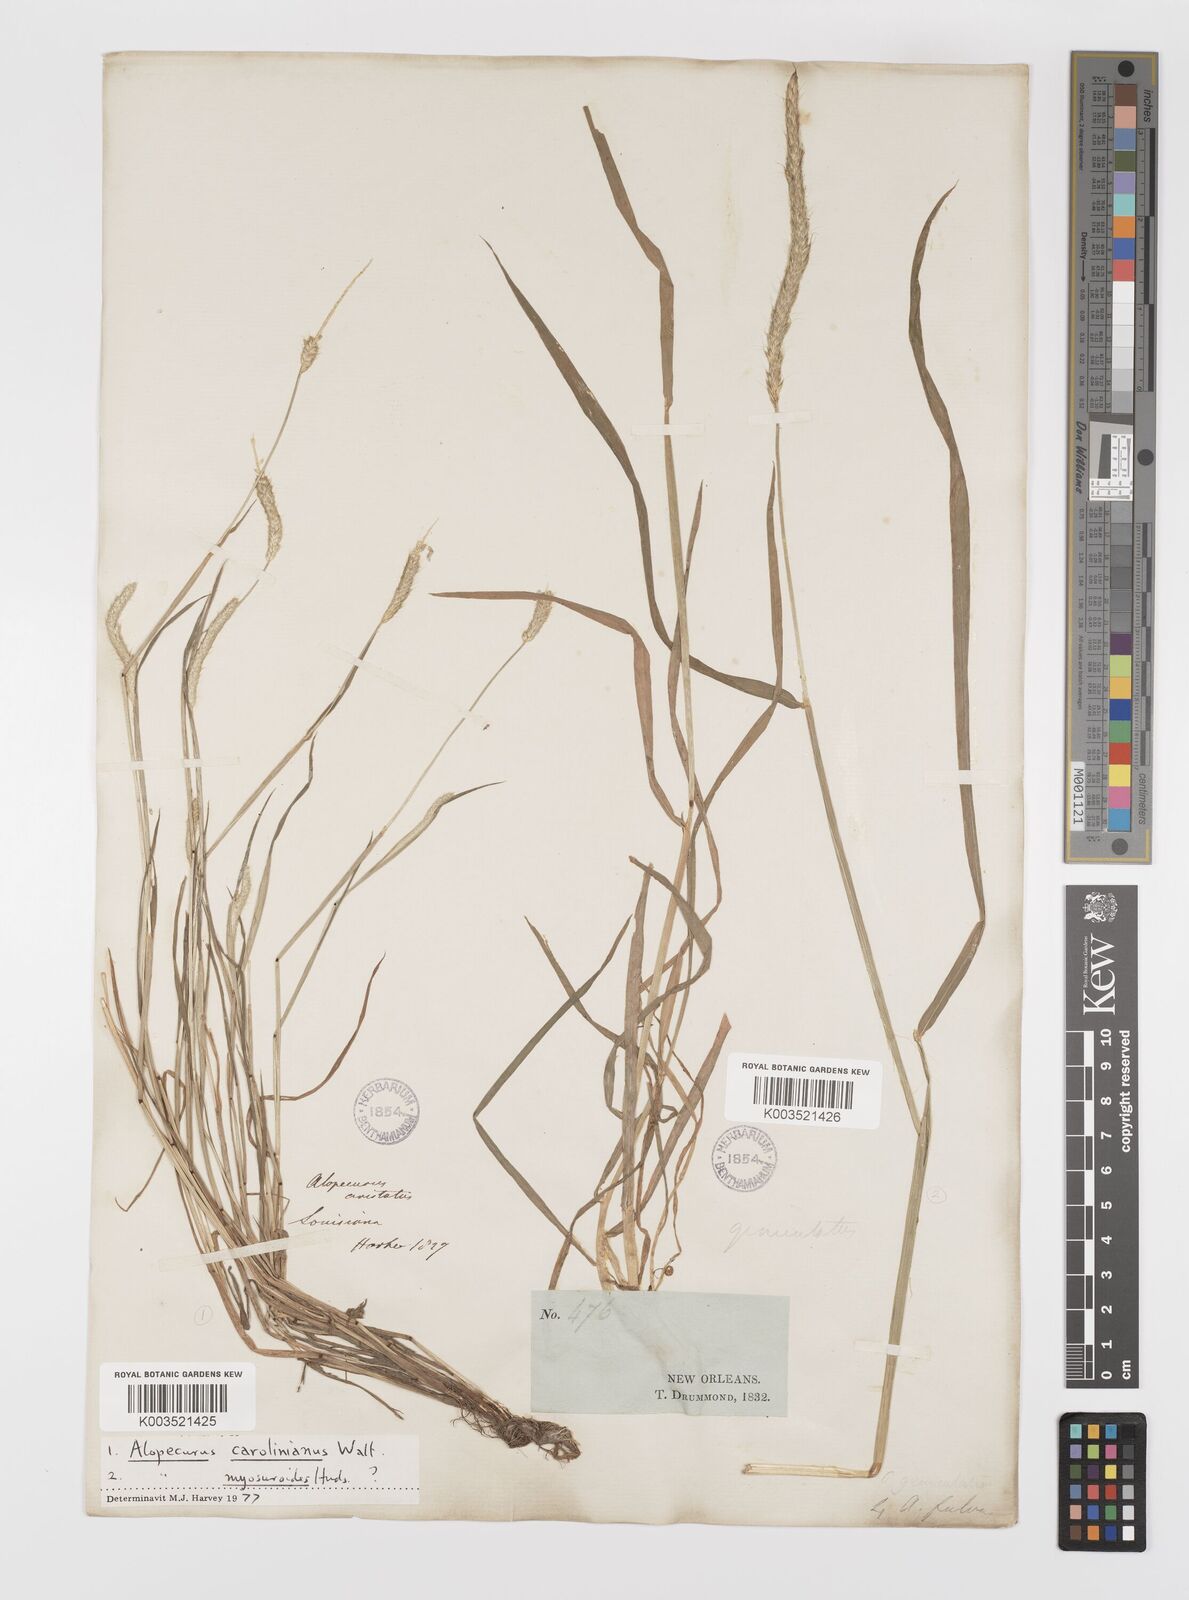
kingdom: Plantae
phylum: Tracheophyta
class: Liliopsida
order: Poales
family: Poaceae
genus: Alopecurus
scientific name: Alopecurus carolinianus
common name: Tufted foxtail
